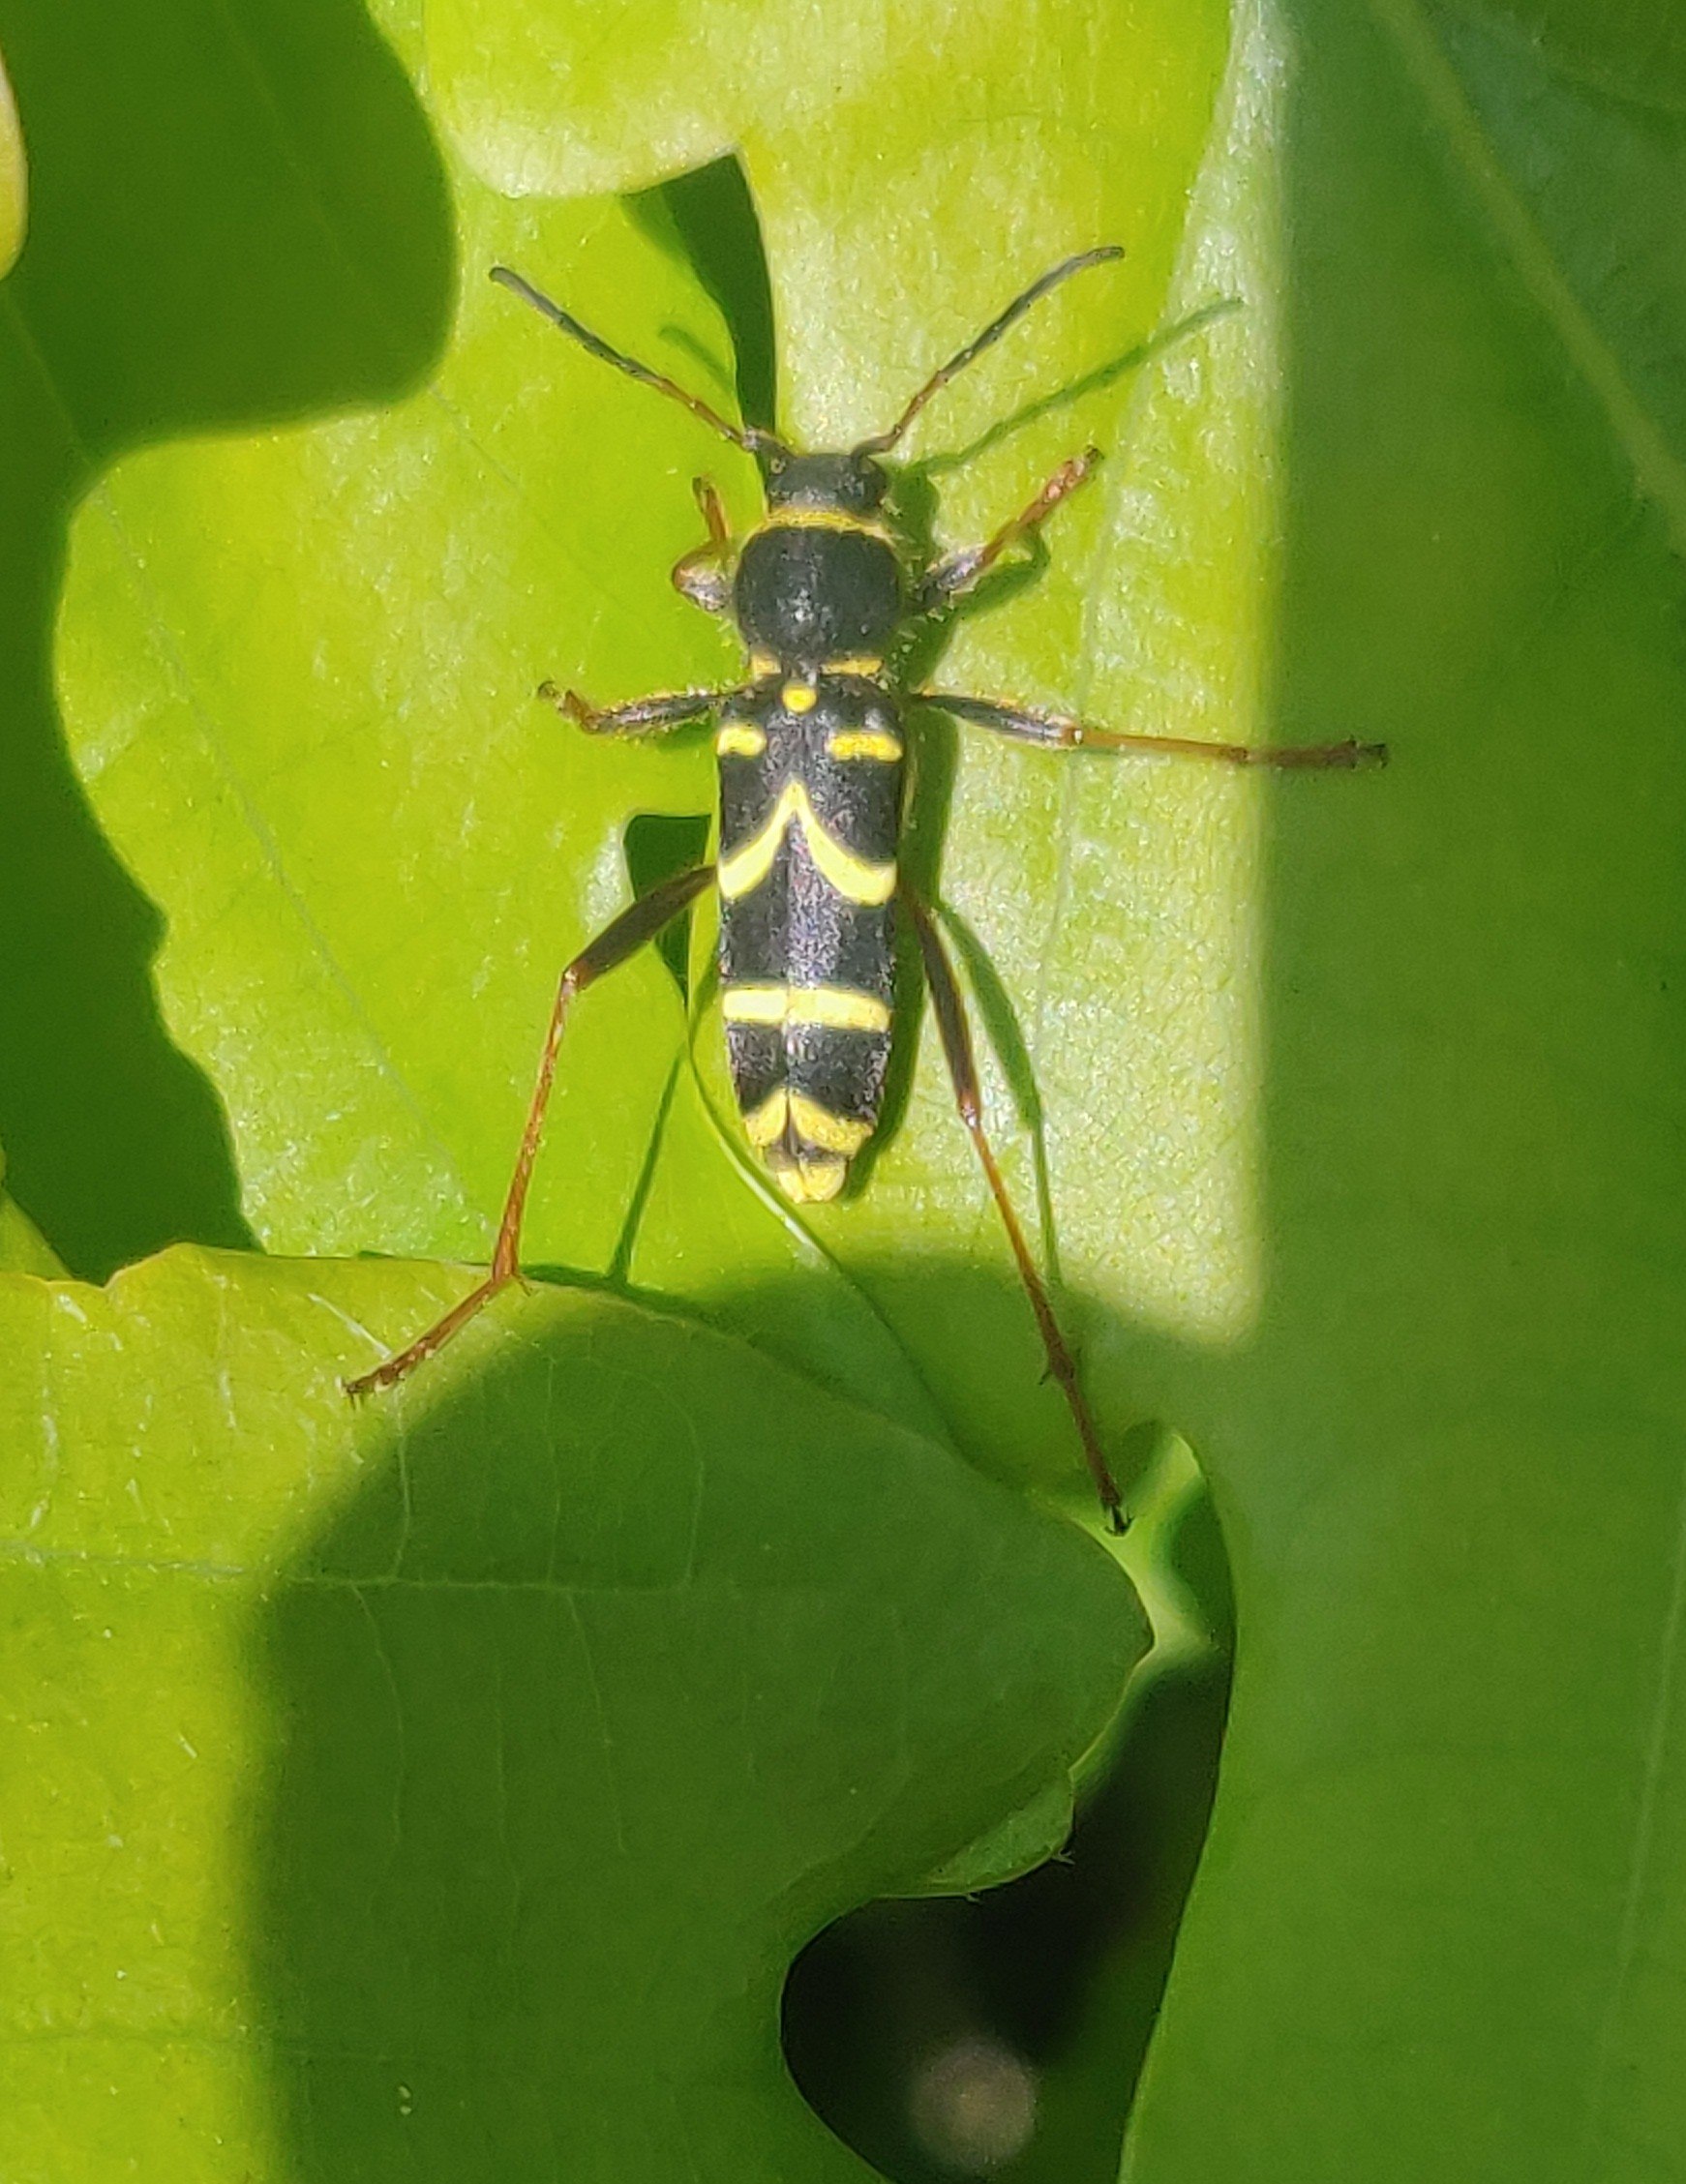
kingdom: Animalia
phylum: Arthropoda
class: Insecta
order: Coleoptera
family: Cerambycidae
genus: Clytus
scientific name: Clytus arietis
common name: Lille hvepsebuk
